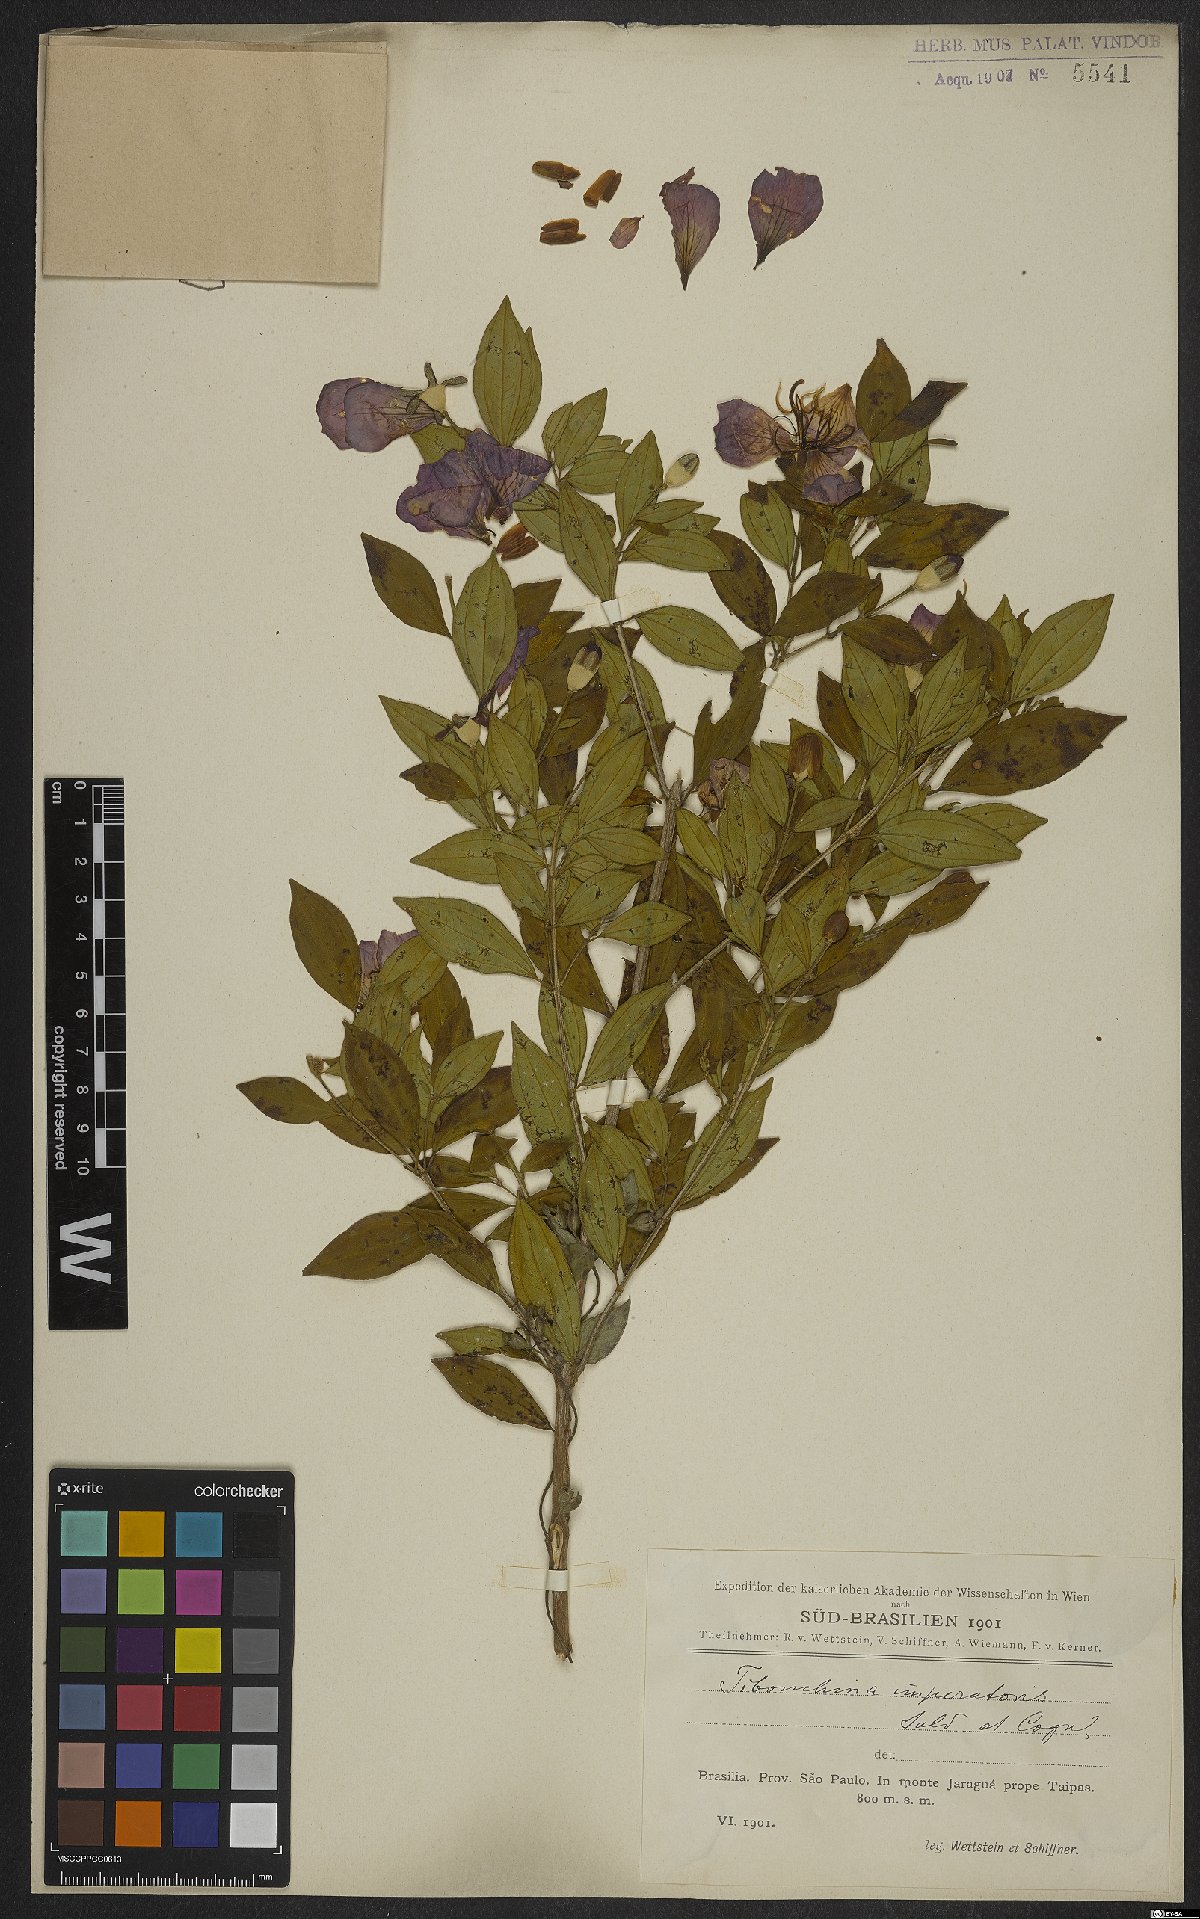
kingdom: Plantae
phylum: Tracheophyta
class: Magnoliopsida
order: Myrtales
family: Melastomataceae
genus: Pleroma
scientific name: Pleroma sellowianum
